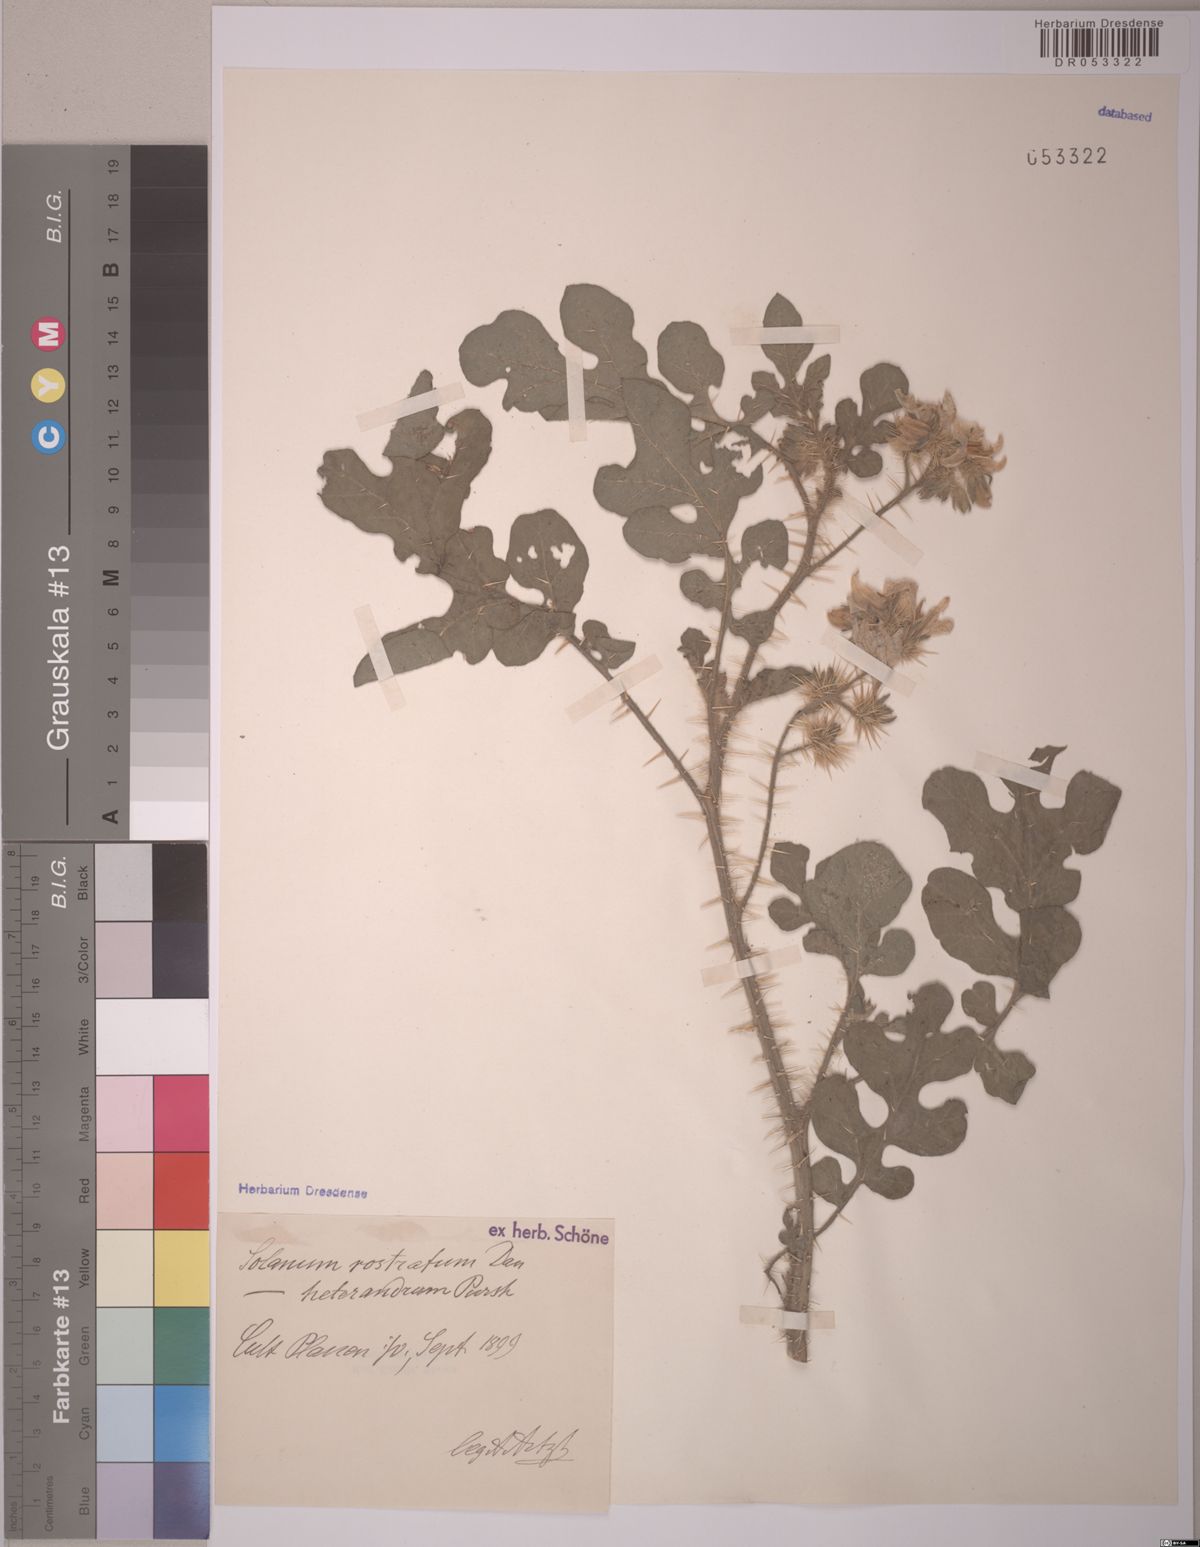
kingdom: Plantae
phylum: Tracheophyta
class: Magnoliopsida
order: Solanales
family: Solanaceae
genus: Solanum
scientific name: Solanum angustifolium
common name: Buffalobur nightshade
